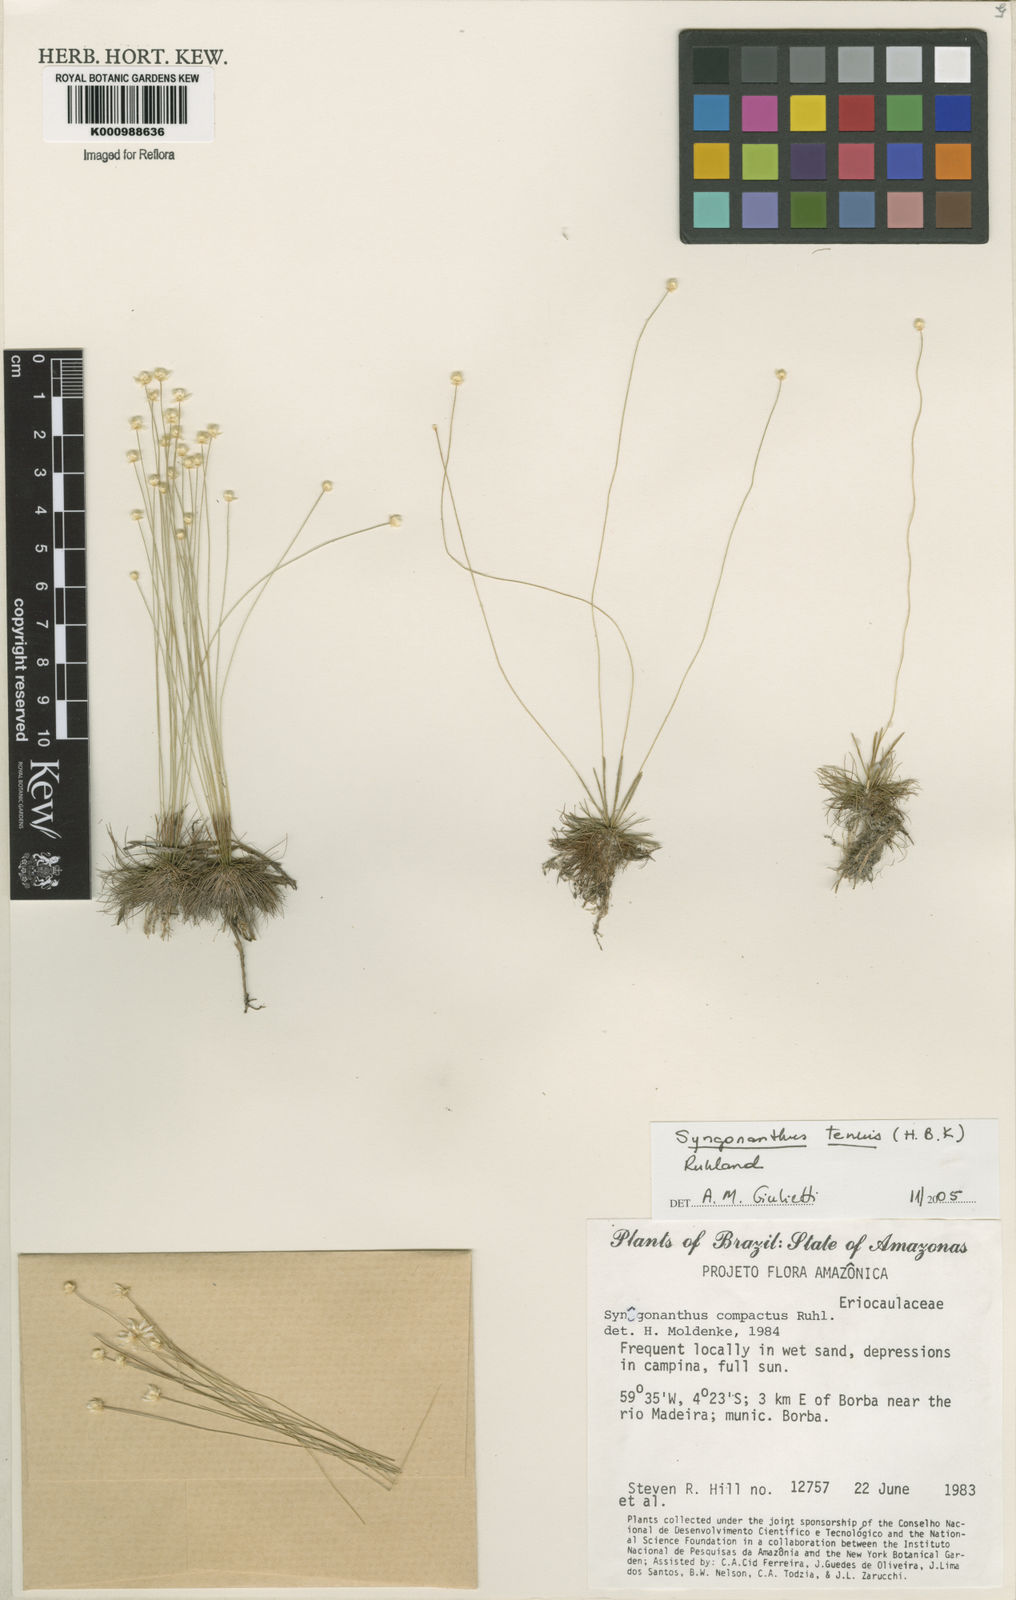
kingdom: Plantae
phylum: Tracheophyta
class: Liliopsida
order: Poales
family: Eriocaulaceae
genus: Syngonanthus
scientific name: Syngonanthus tenuis
